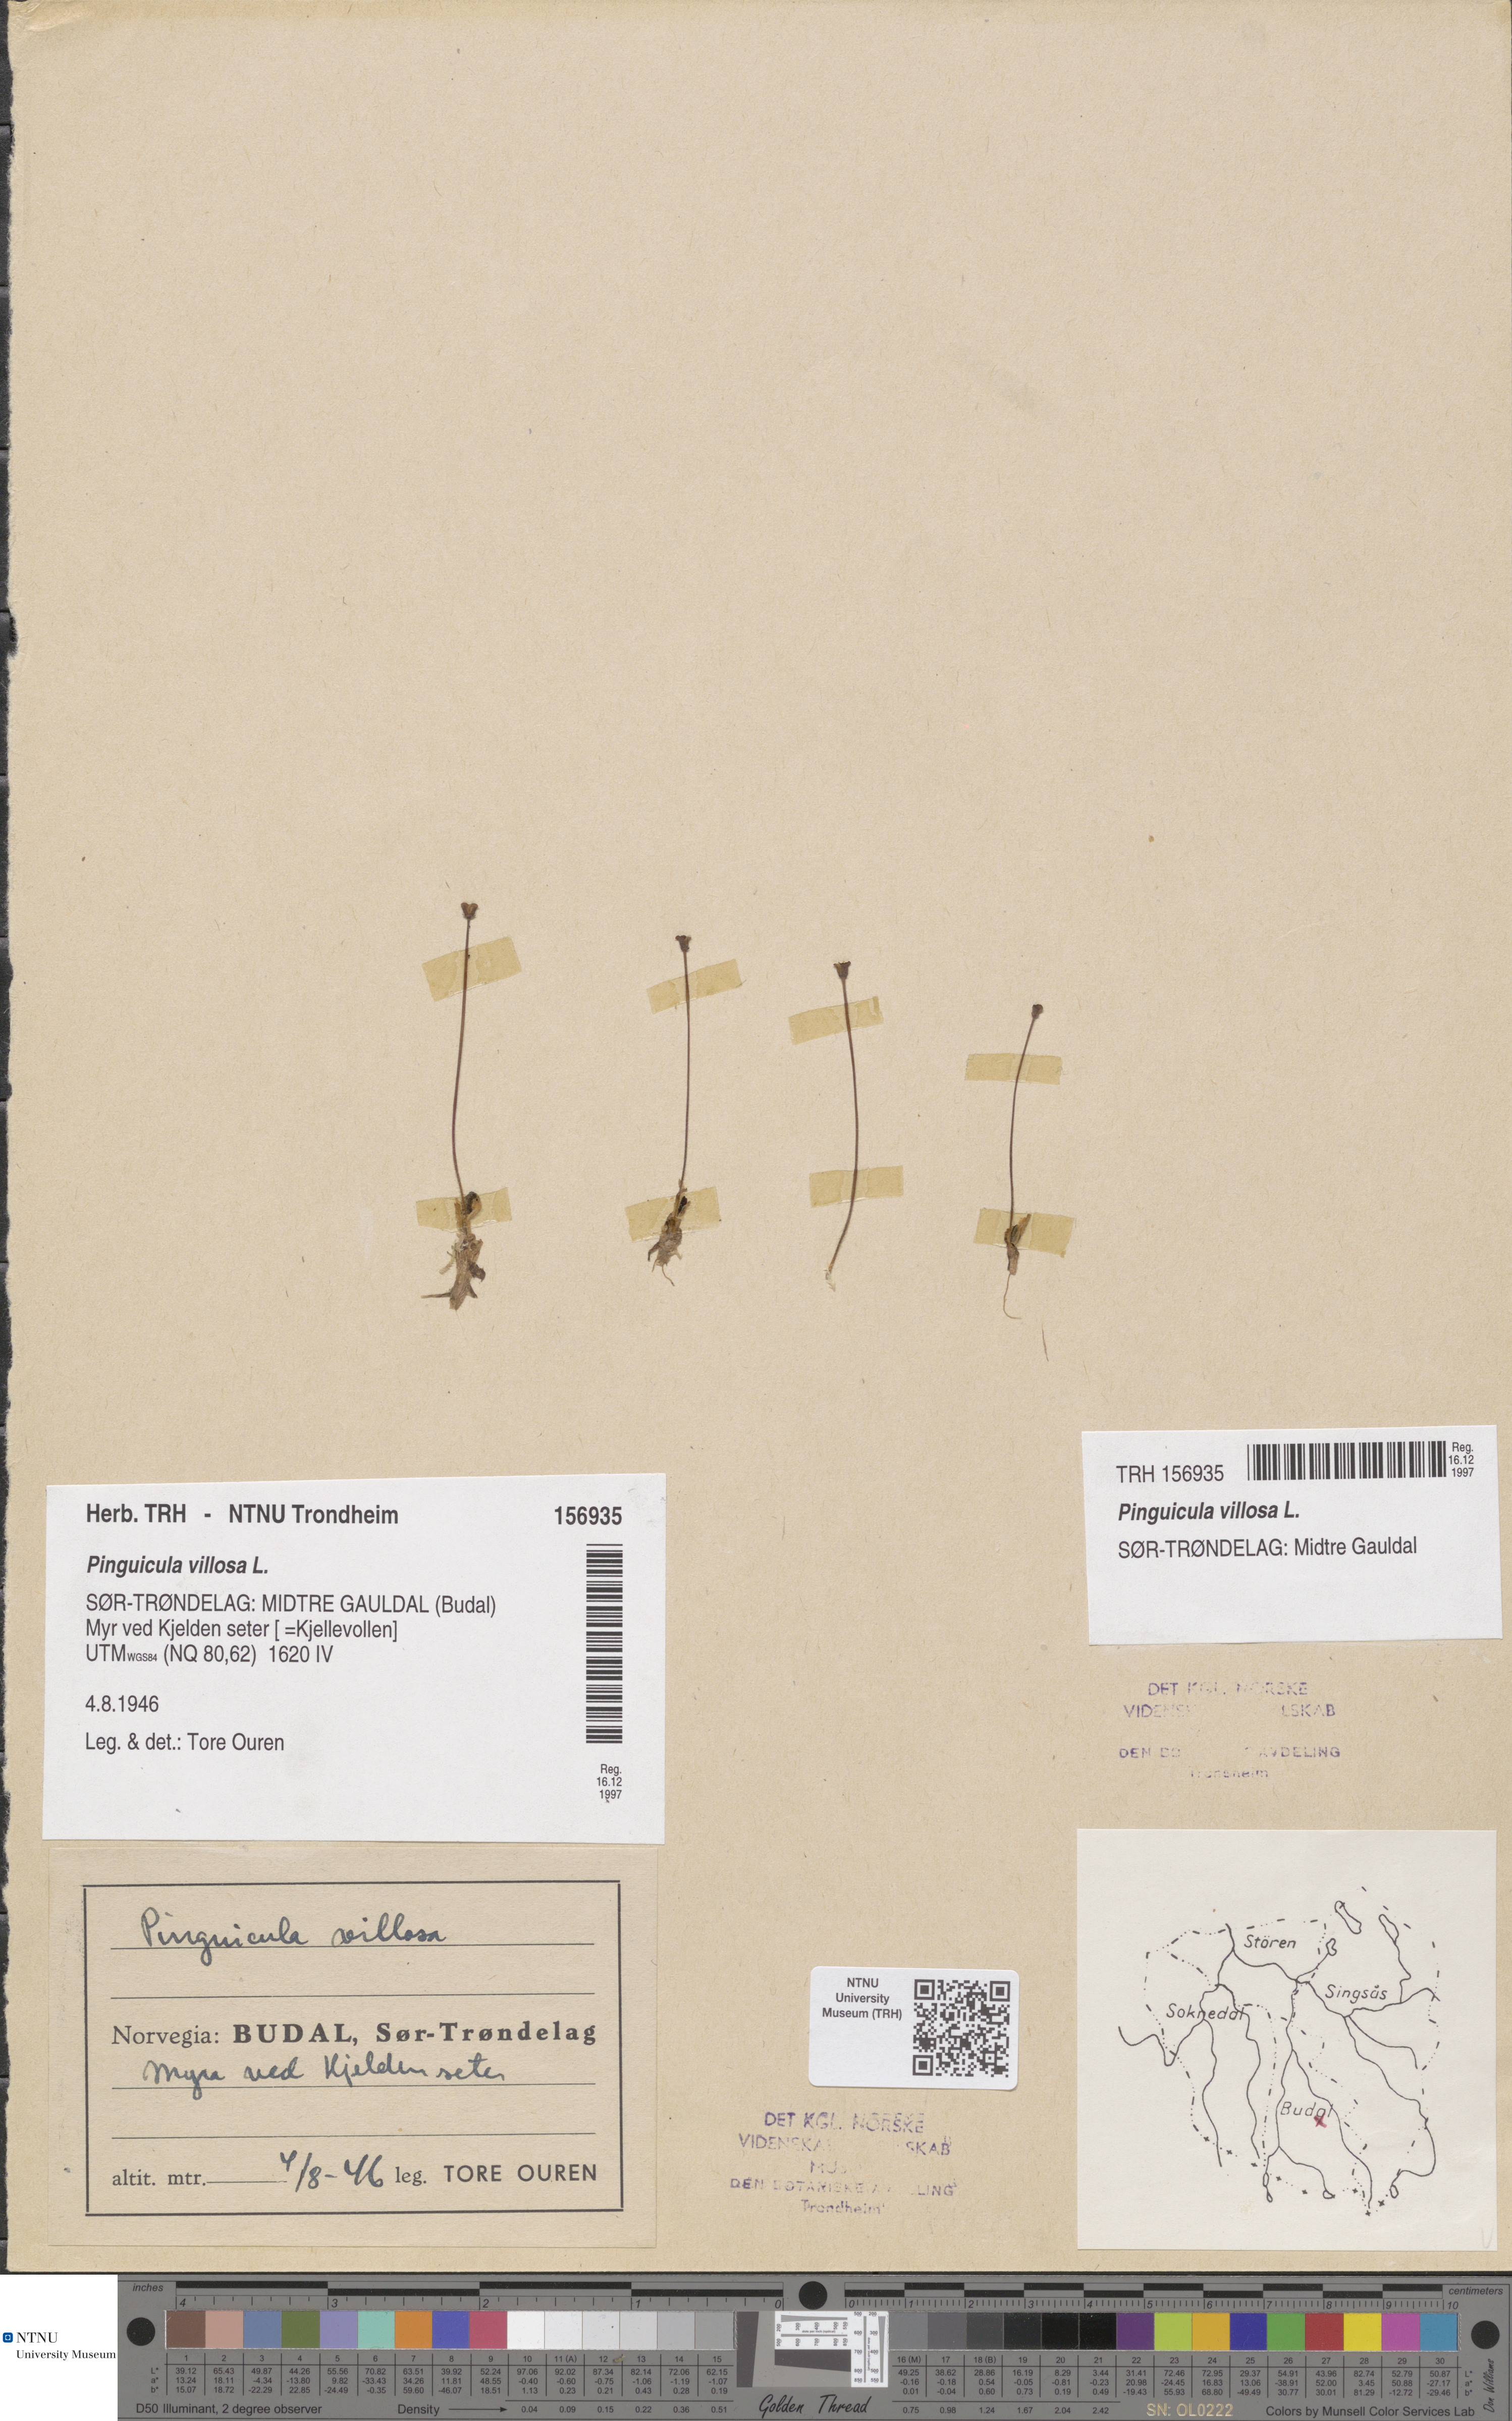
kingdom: Plantae
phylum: Tracheophyta
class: Magnoliopsida
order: Lamiales
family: Lentibulariaceae
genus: Pinguicula
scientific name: Pinguicula villosa
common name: Hairy butterwort
